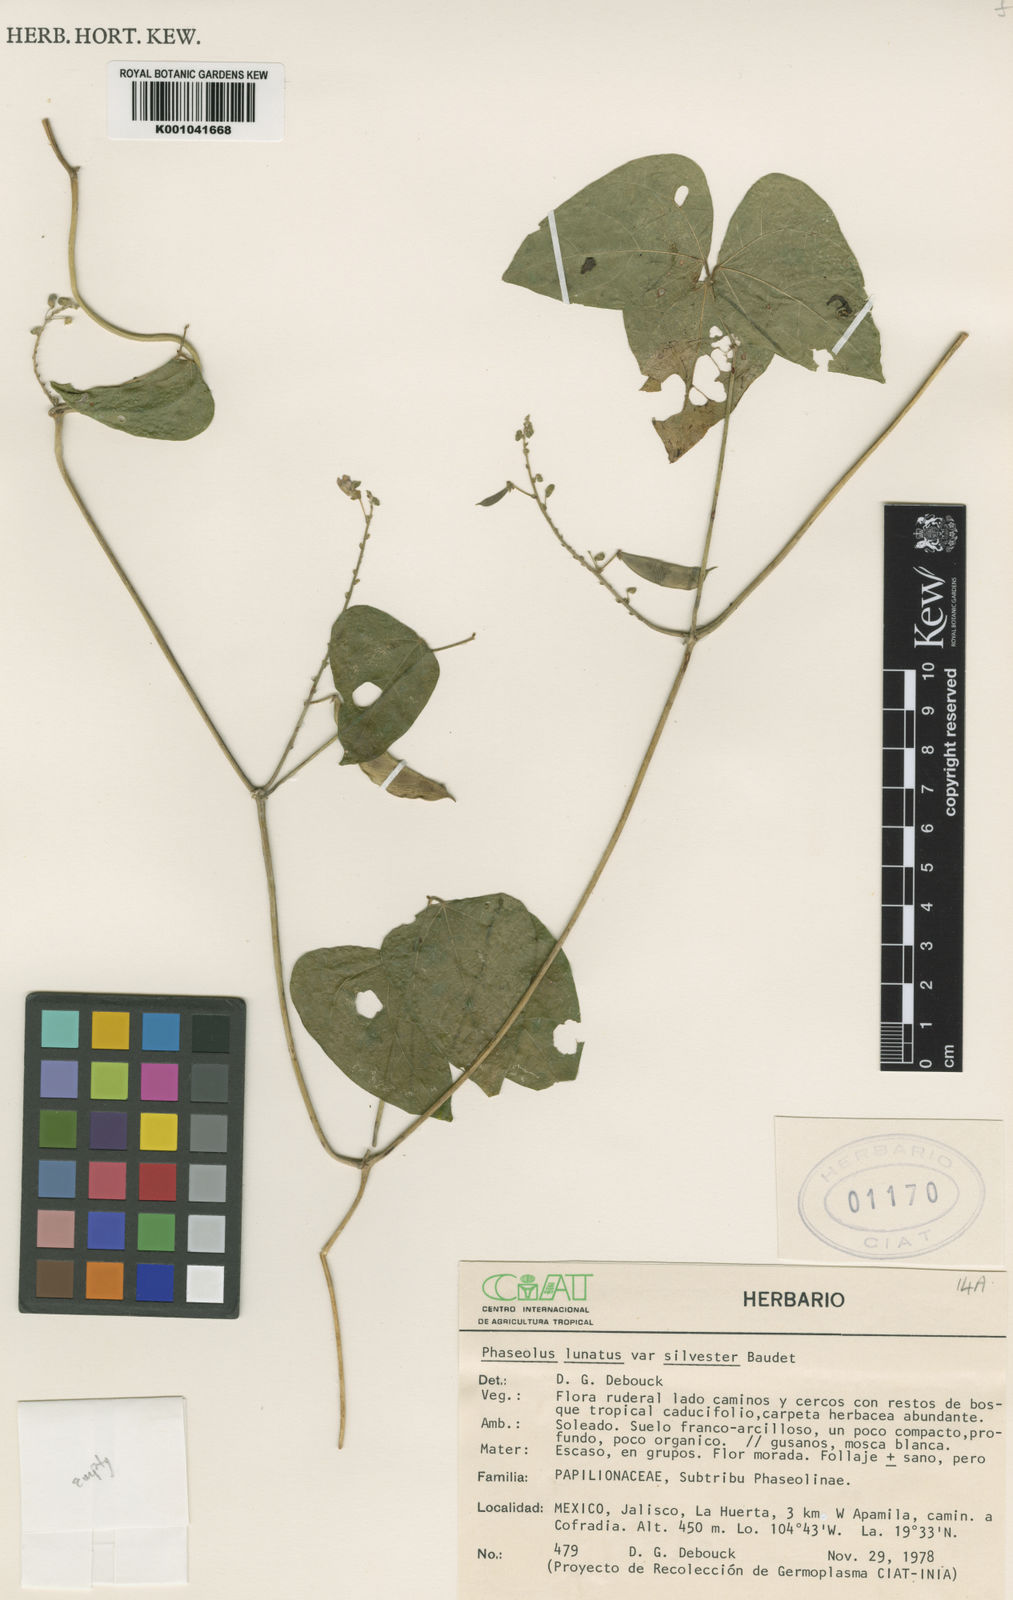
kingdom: Plantae
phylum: Tracheophyta
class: Magnoliopsida
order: Fabales
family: Fabaceae
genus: Phaseolus
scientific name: Phaseolus lunatus
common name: Sieva bean
